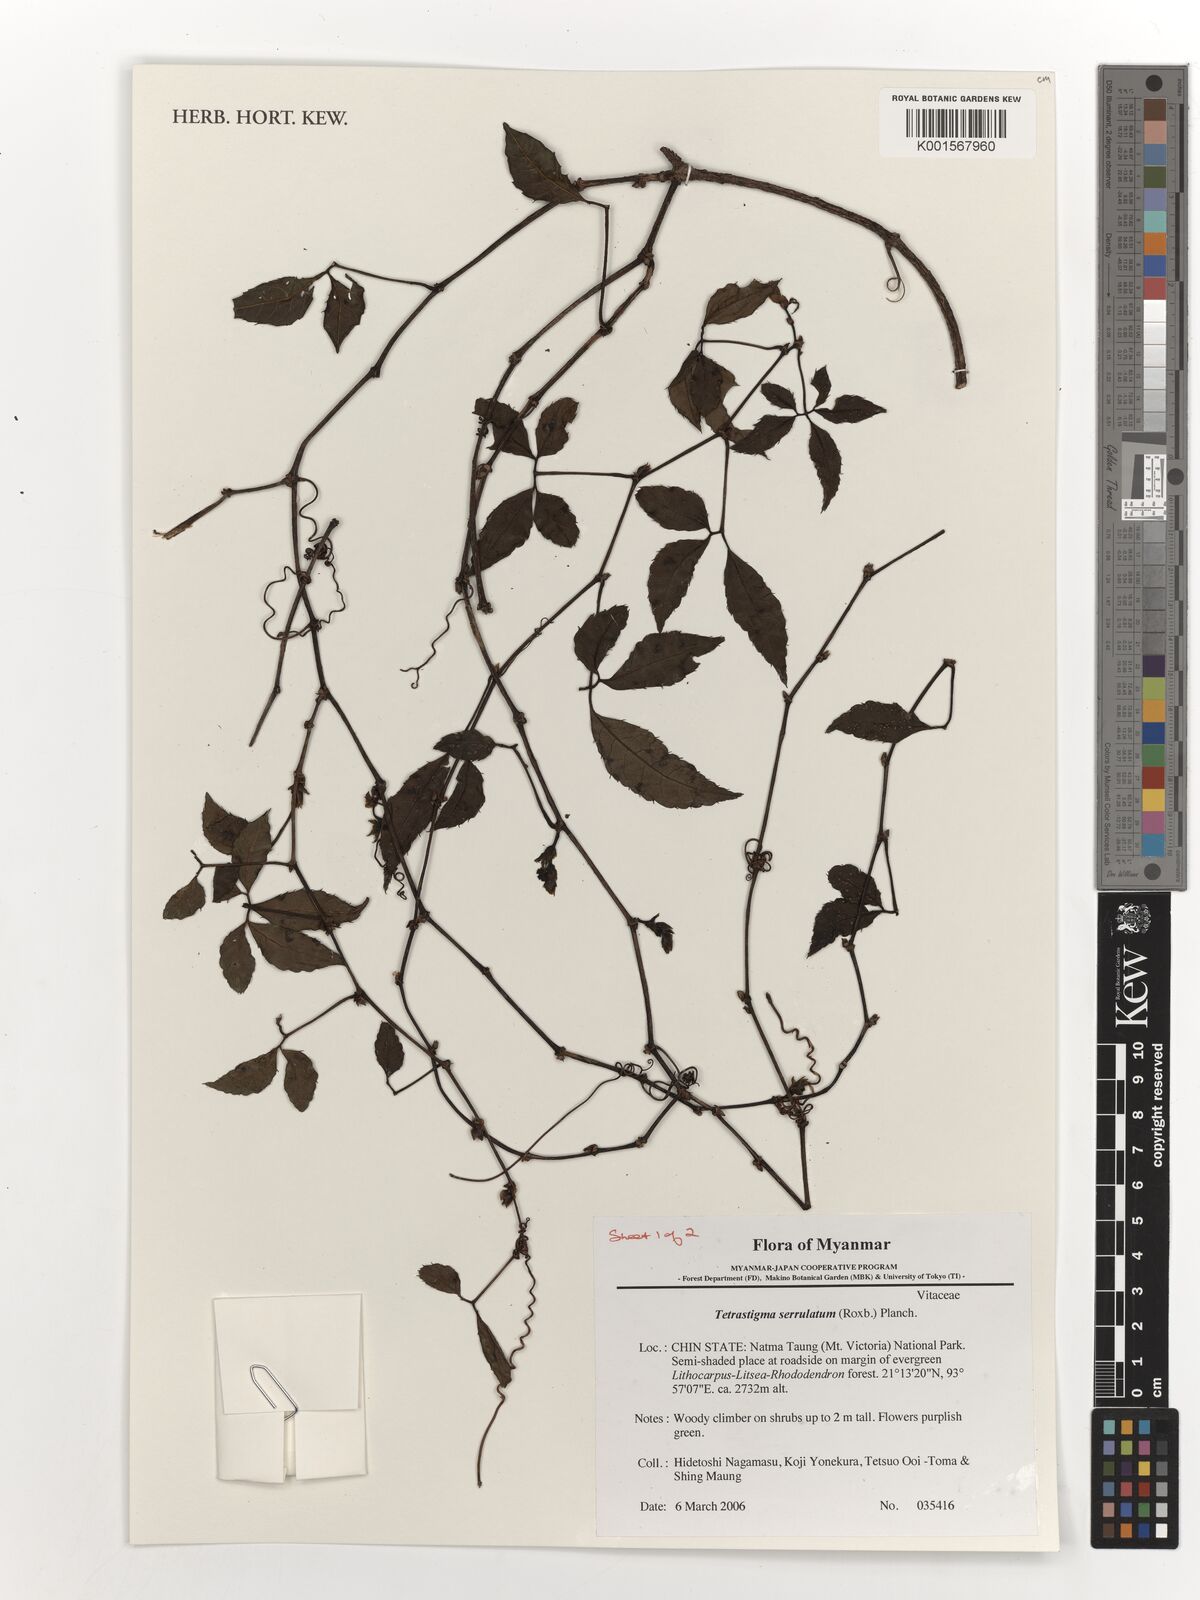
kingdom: Plantae
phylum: Tracheophyta
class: Magnoliopsida
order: Vitales
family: Vitaceae
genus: Tetrastigma
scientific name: Tetrastigma serrulatum
